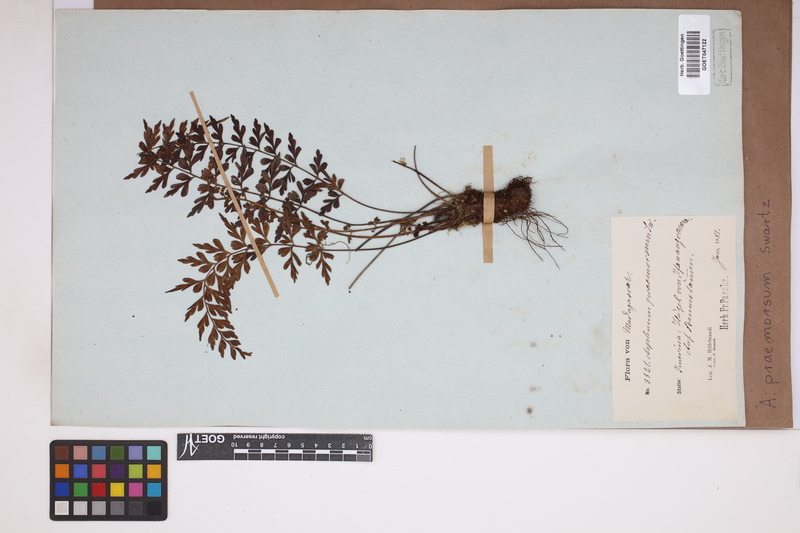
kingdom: Plantae
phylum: Tracheophyta
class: Polypodiopsida
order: Polypodiales
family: Aspleniaceae
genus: Asplenium
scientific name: Asplenium praemorsum
